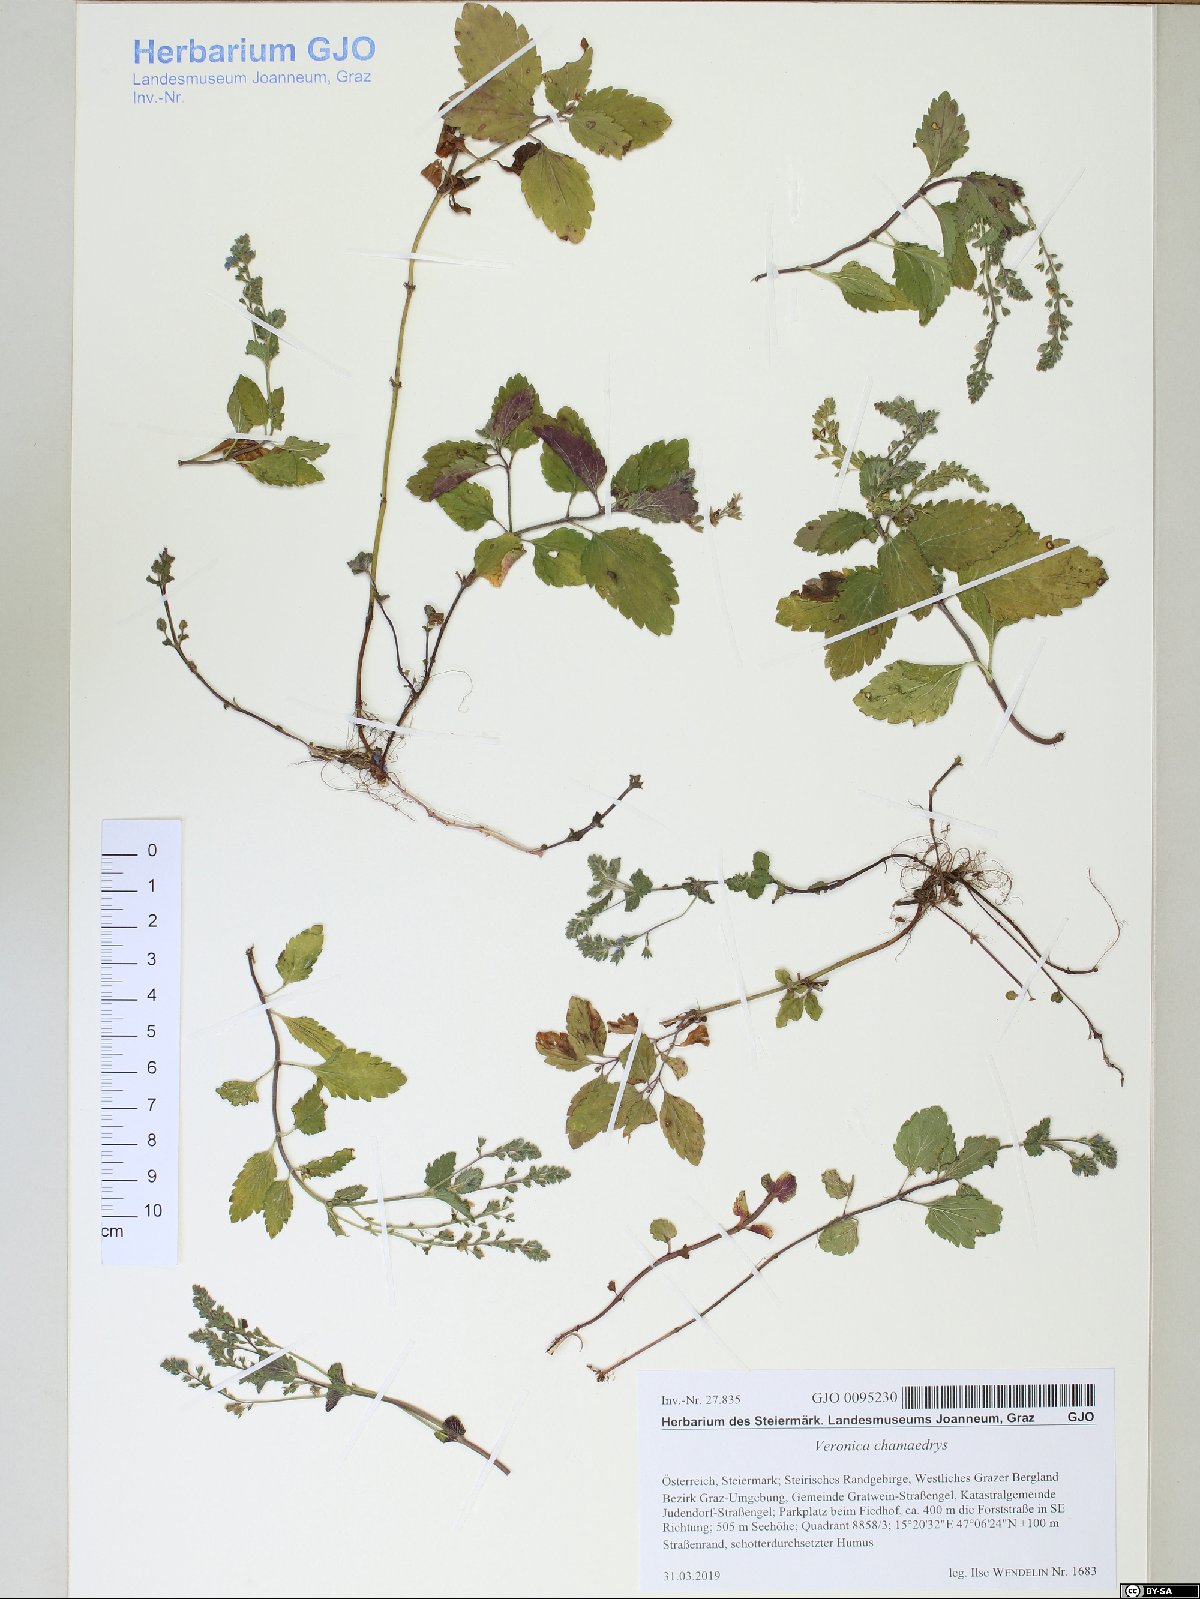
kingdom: Plantae
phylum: Tracheophyta
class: Magnoliopsida
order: Lamiales
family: Plantaginaceae
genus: Veronica
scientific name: Veronica chamaedrys
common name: Germander speedwell
